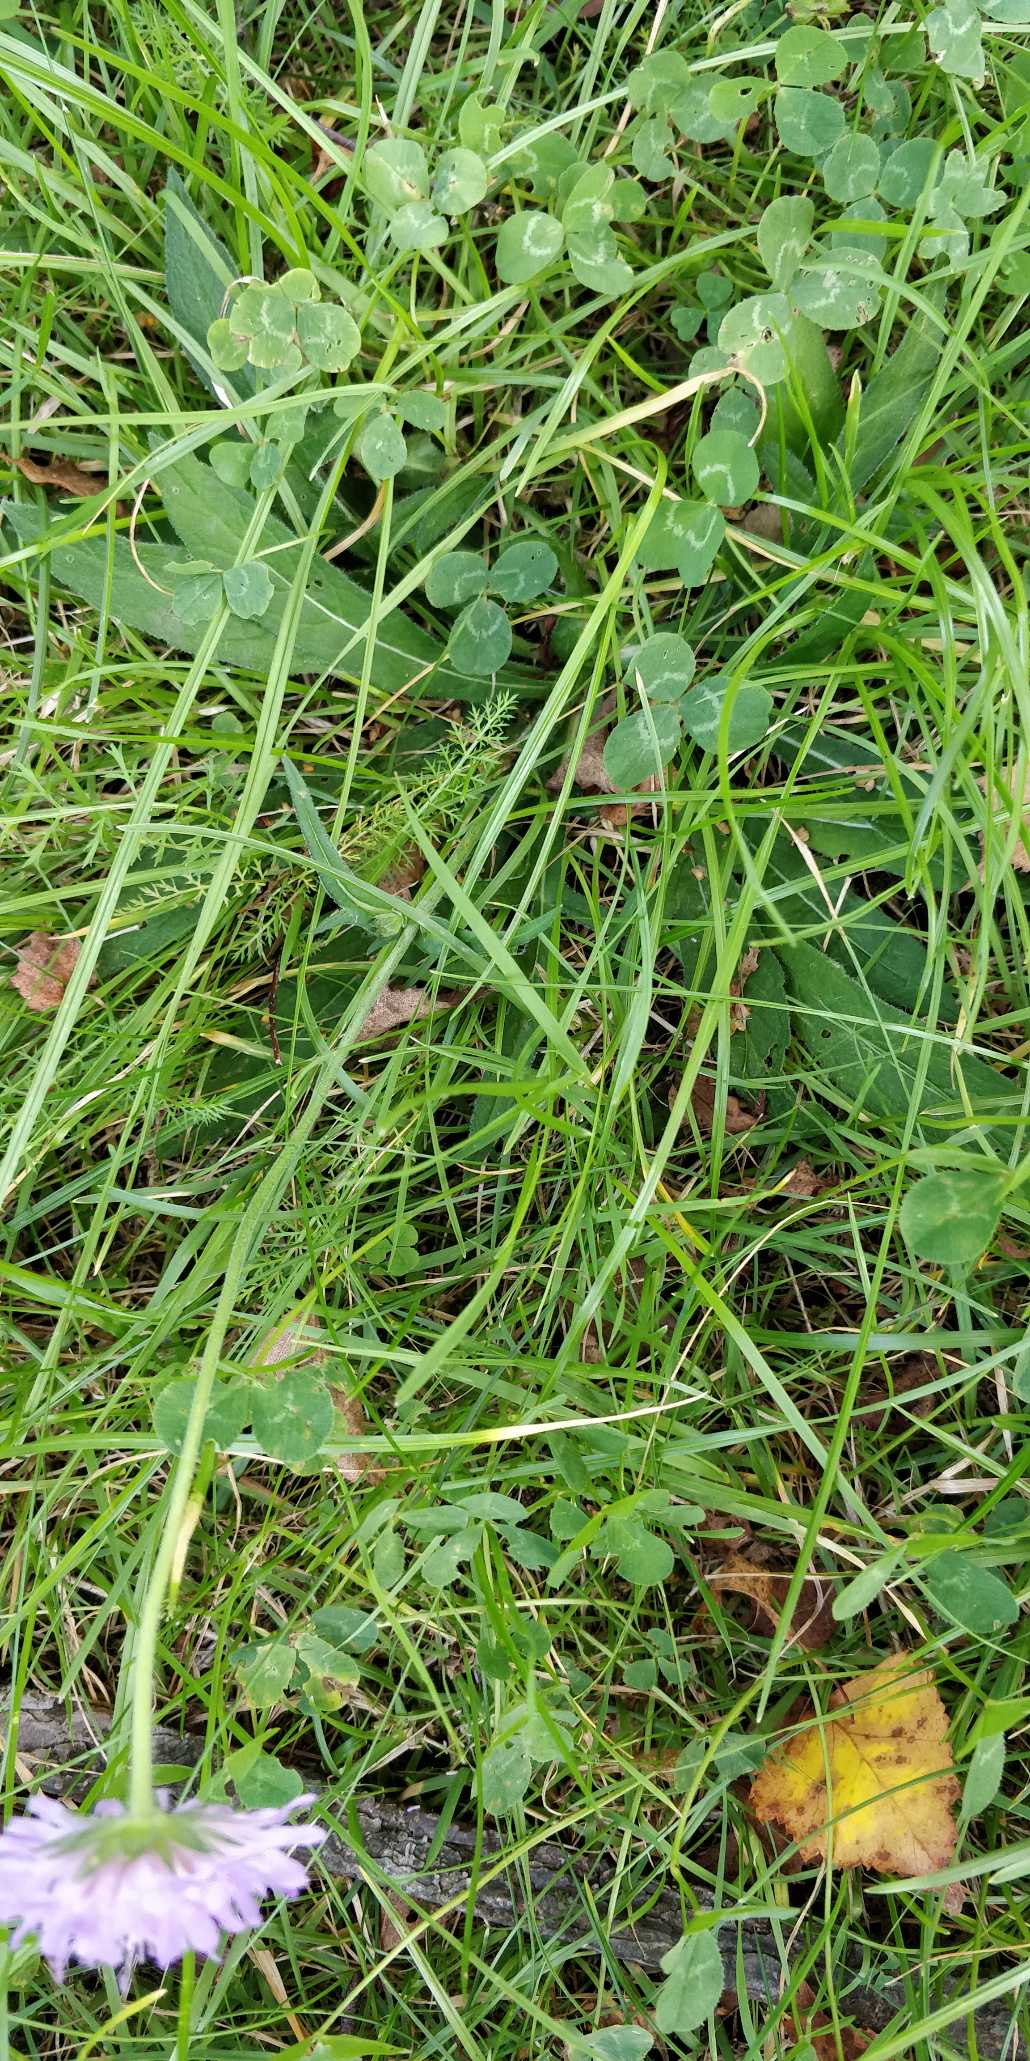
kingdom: Plantae
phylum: Tracheophyta
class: Magnoliopsida
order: Dipsacales
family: Caprifoliaceae
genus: Knautia
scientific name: Knautia arvensis
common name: Blåhat
